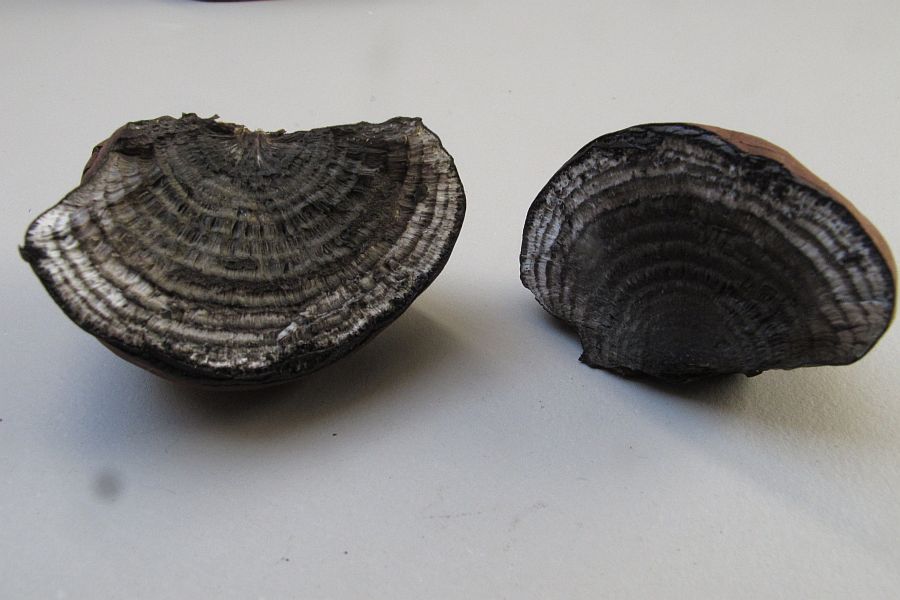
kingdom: Fungi
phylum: Ascomycota
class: Sordariomycetes
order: Xylariales
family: Hypoxylaceae
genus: Daldinia
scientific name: Daldinia concentrica
